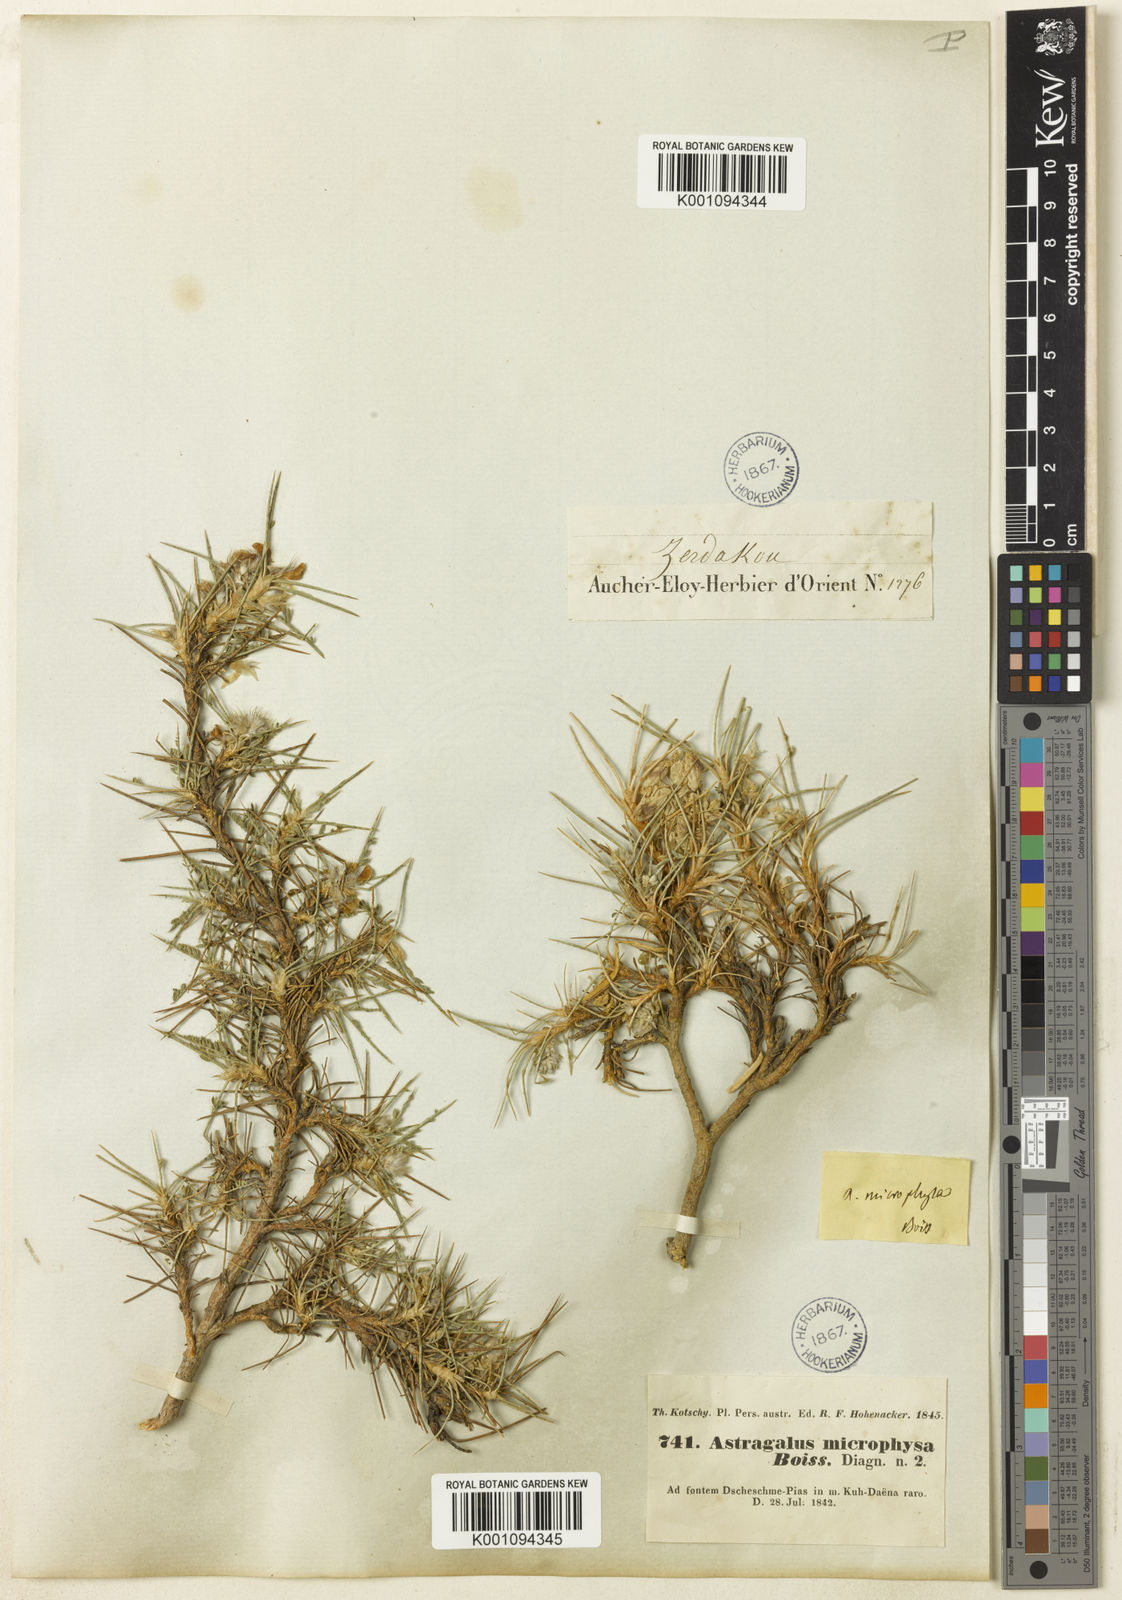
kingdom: Plantae
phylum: Tracheophyta
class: Magnoliopsida
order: Fabales
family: Fabaceae
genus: Astragalus
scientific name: Astragalus
